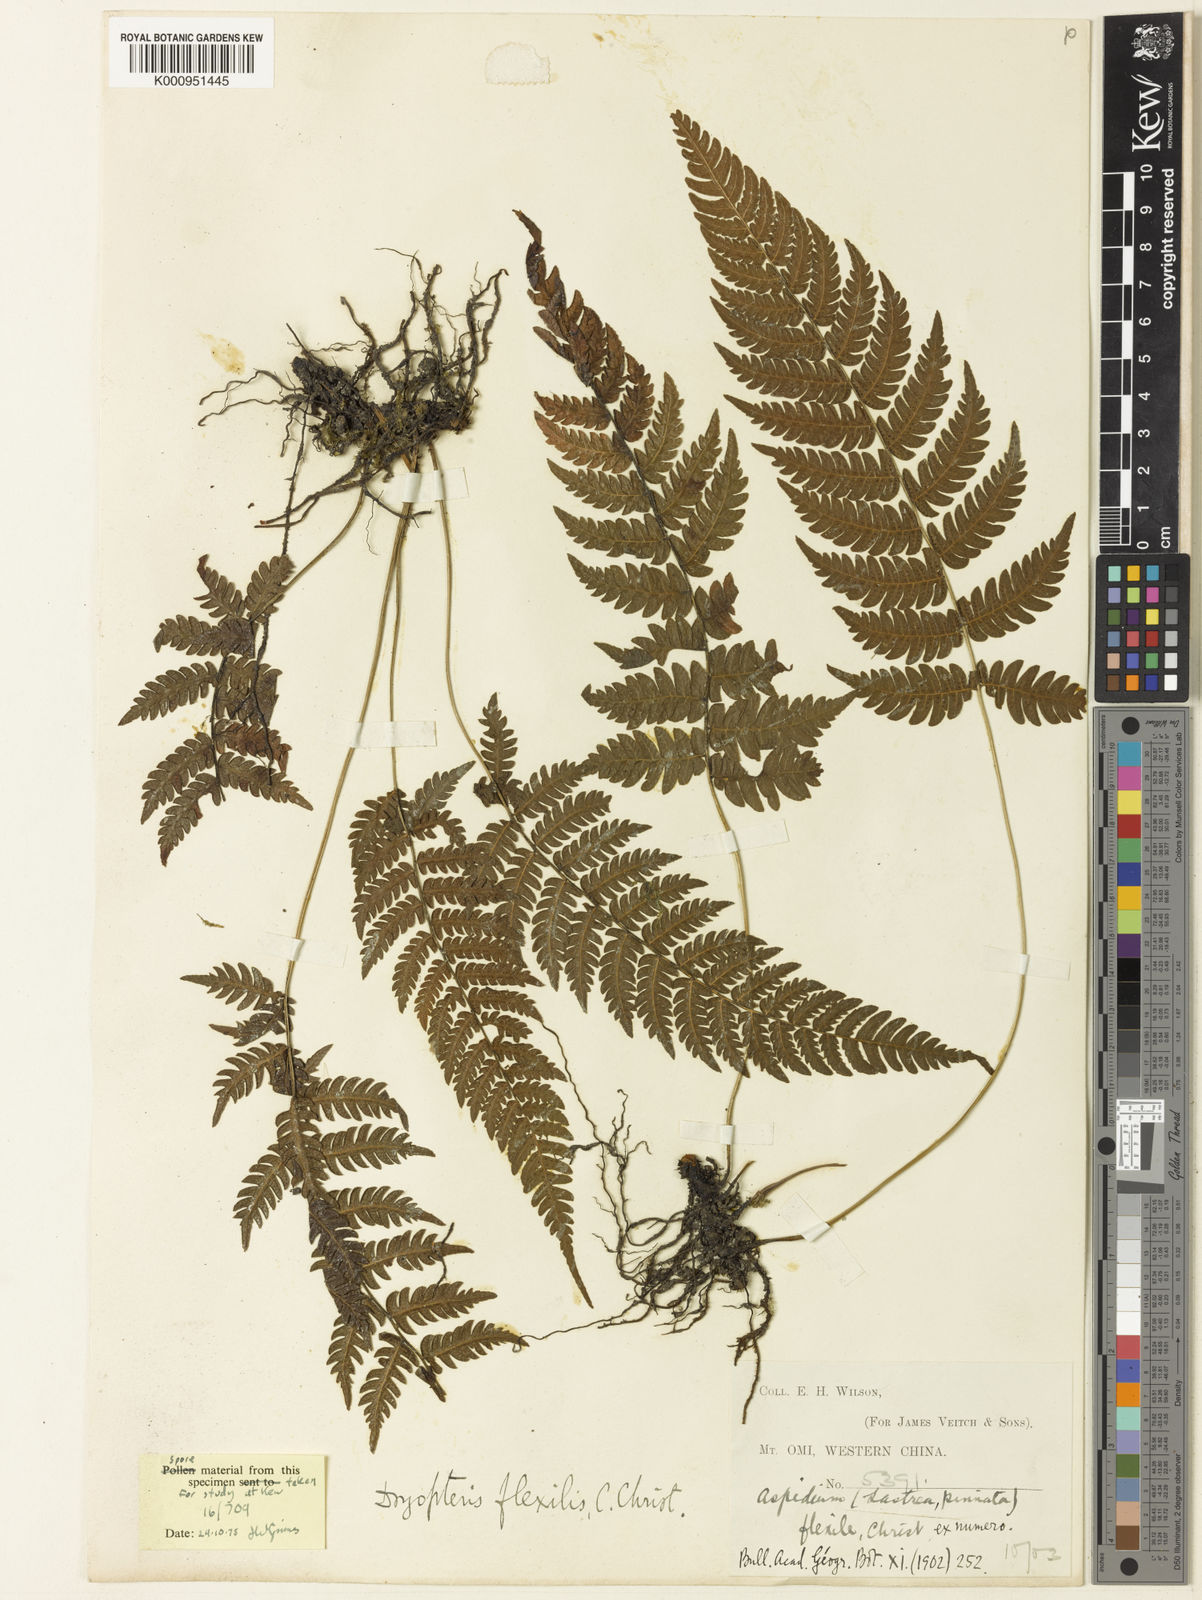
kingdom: Plantae
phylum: Tracheophyta
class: Polypodiopsida
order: Polypodiales
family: Thelypteridaceae
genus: Cyclogramma
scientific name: Cyclogramma flexilis
